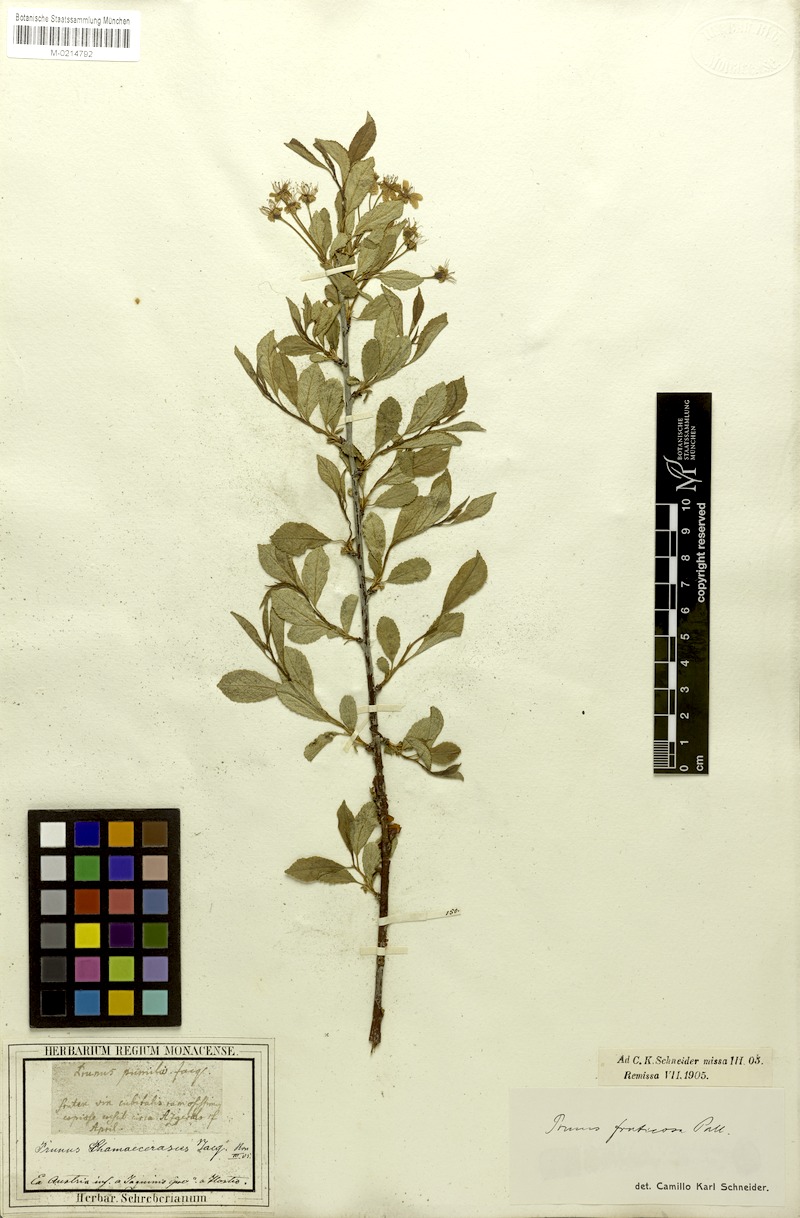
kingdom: Plantae
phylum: Tracheophyta
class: Magnoliopsida
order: Rosales
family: Rosaceae
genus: Prunus
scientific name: Prunus fruticosa
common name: European dwarf cherry
